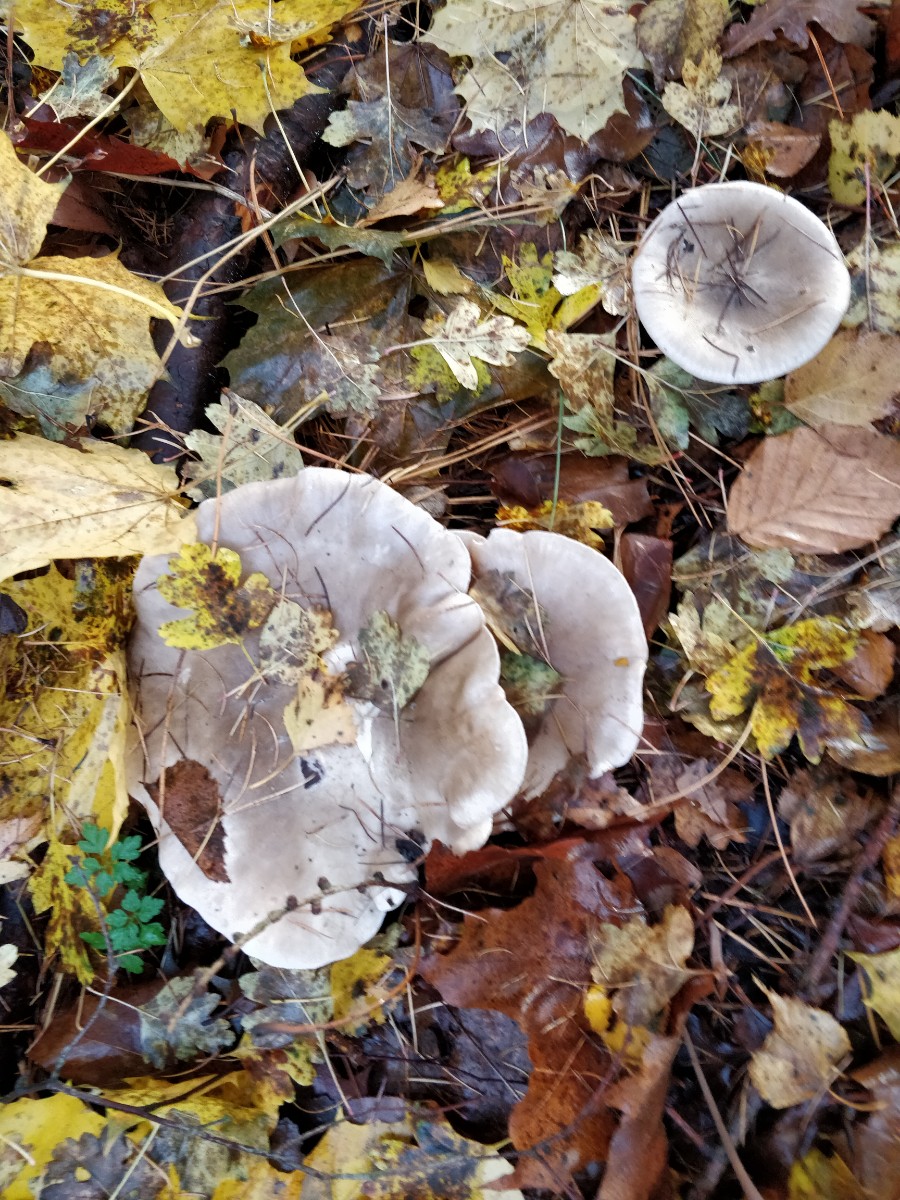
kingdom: Fungi
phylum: Basidiomycota
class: Agaricomycetes
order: Agaricales
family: Tricholomataceae
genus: Clitocybe
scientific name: Clitocybe nebularis
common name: tåge-tragthat
